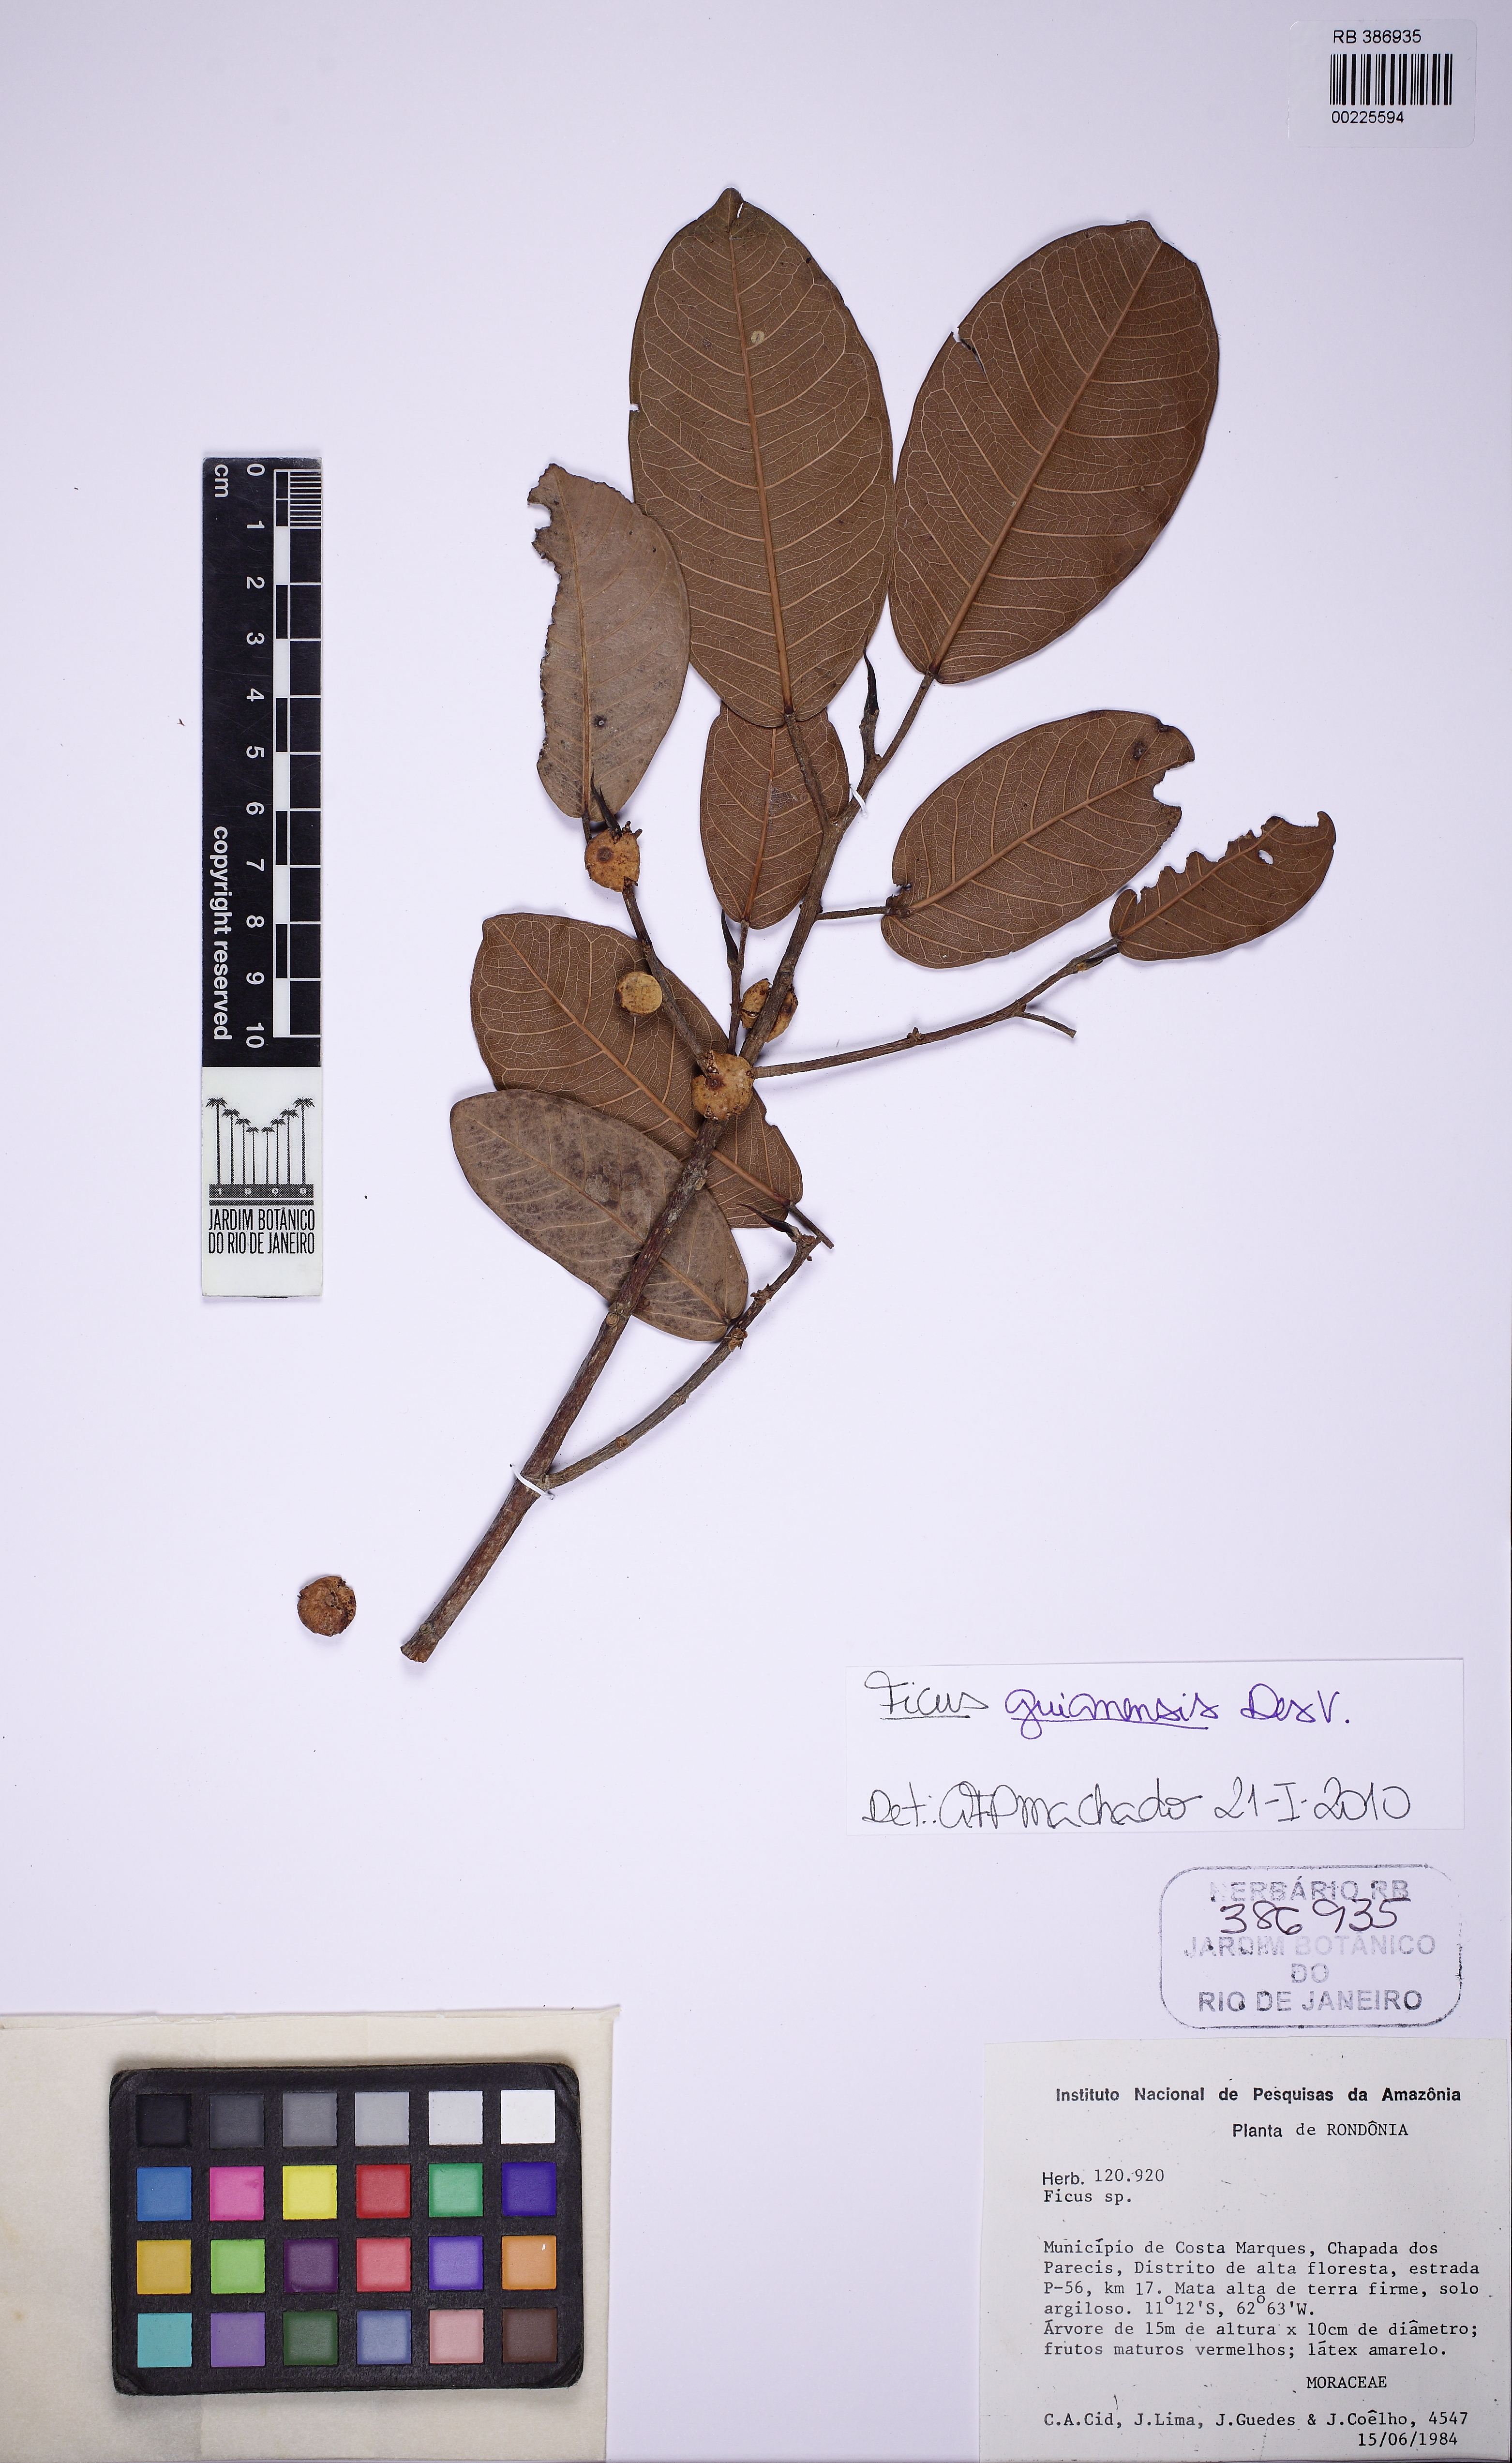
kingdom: Plantae
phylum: Tracheophyta
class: Magnoliopsida
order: Rosales
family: Moraceae
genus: Ficus
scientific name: Ficus coerulescens
